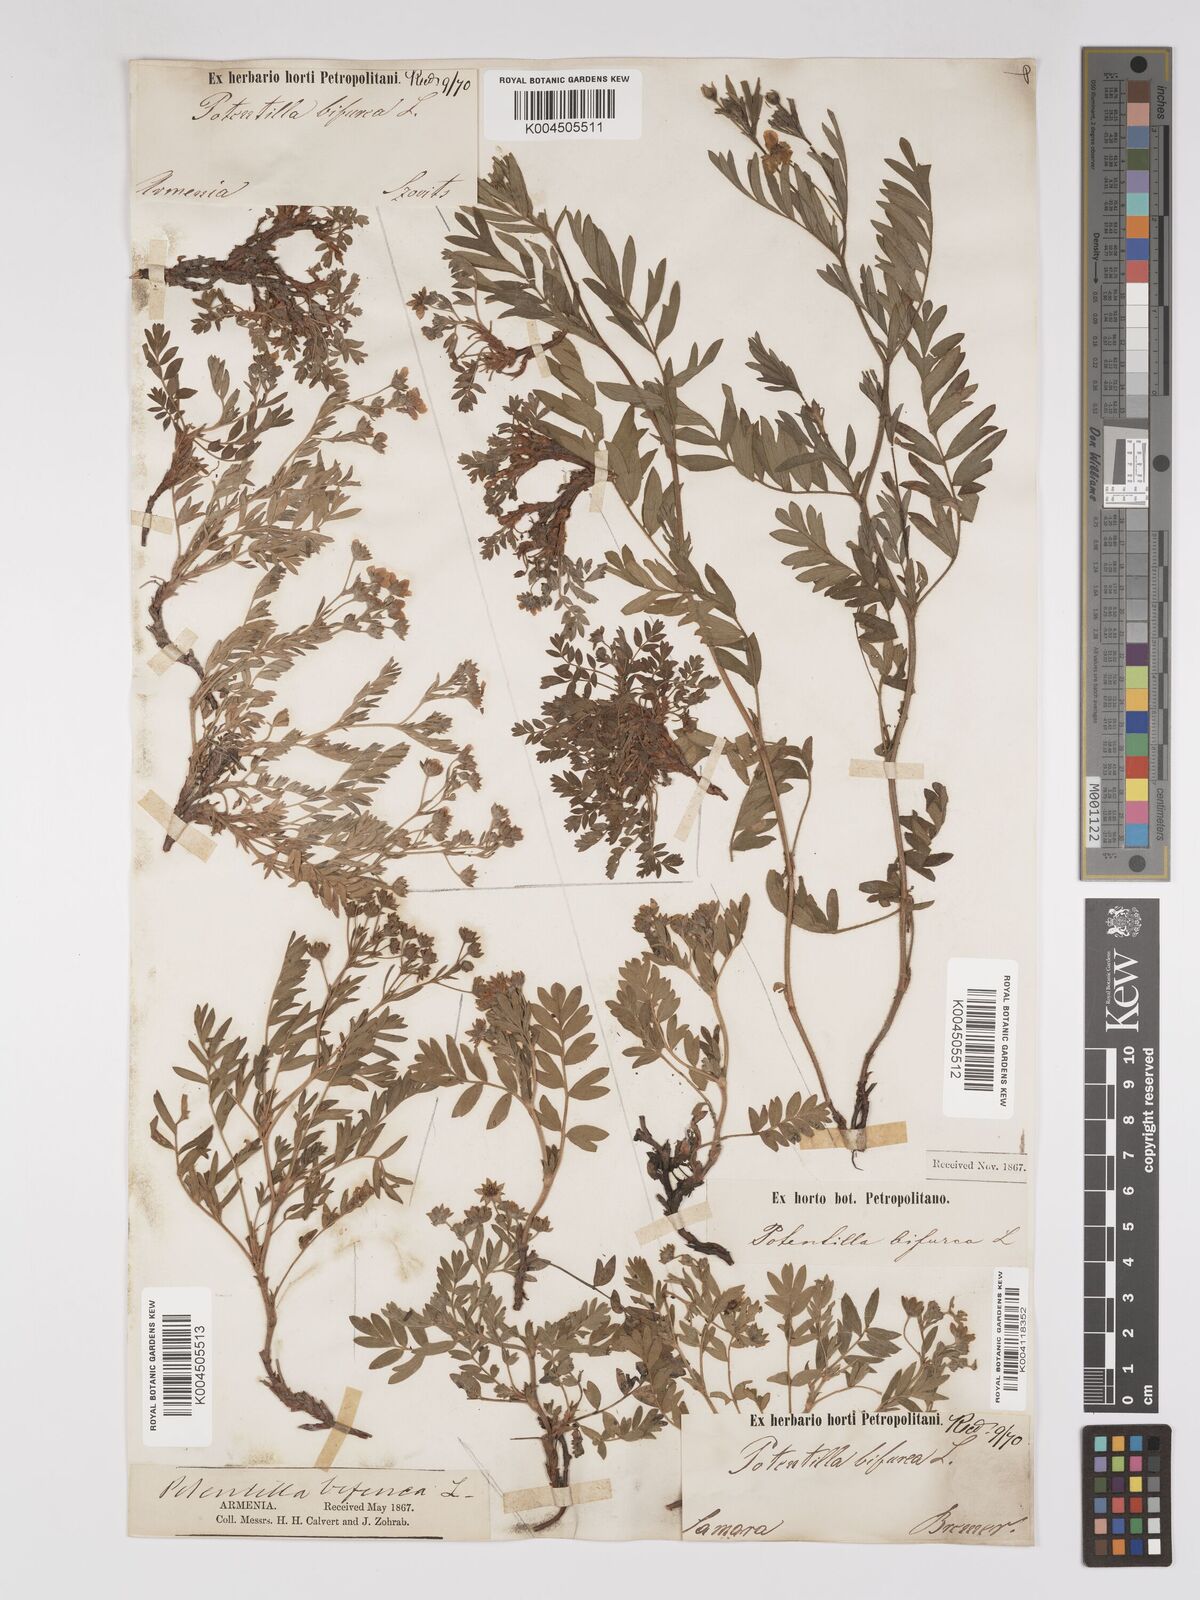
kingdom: Plantae
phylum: Tracheophyta
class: Magnoliopsida
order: Rosales
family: Rosaceae
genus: Sibbaldianthe
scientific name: Sibbaldianthe bifurca
